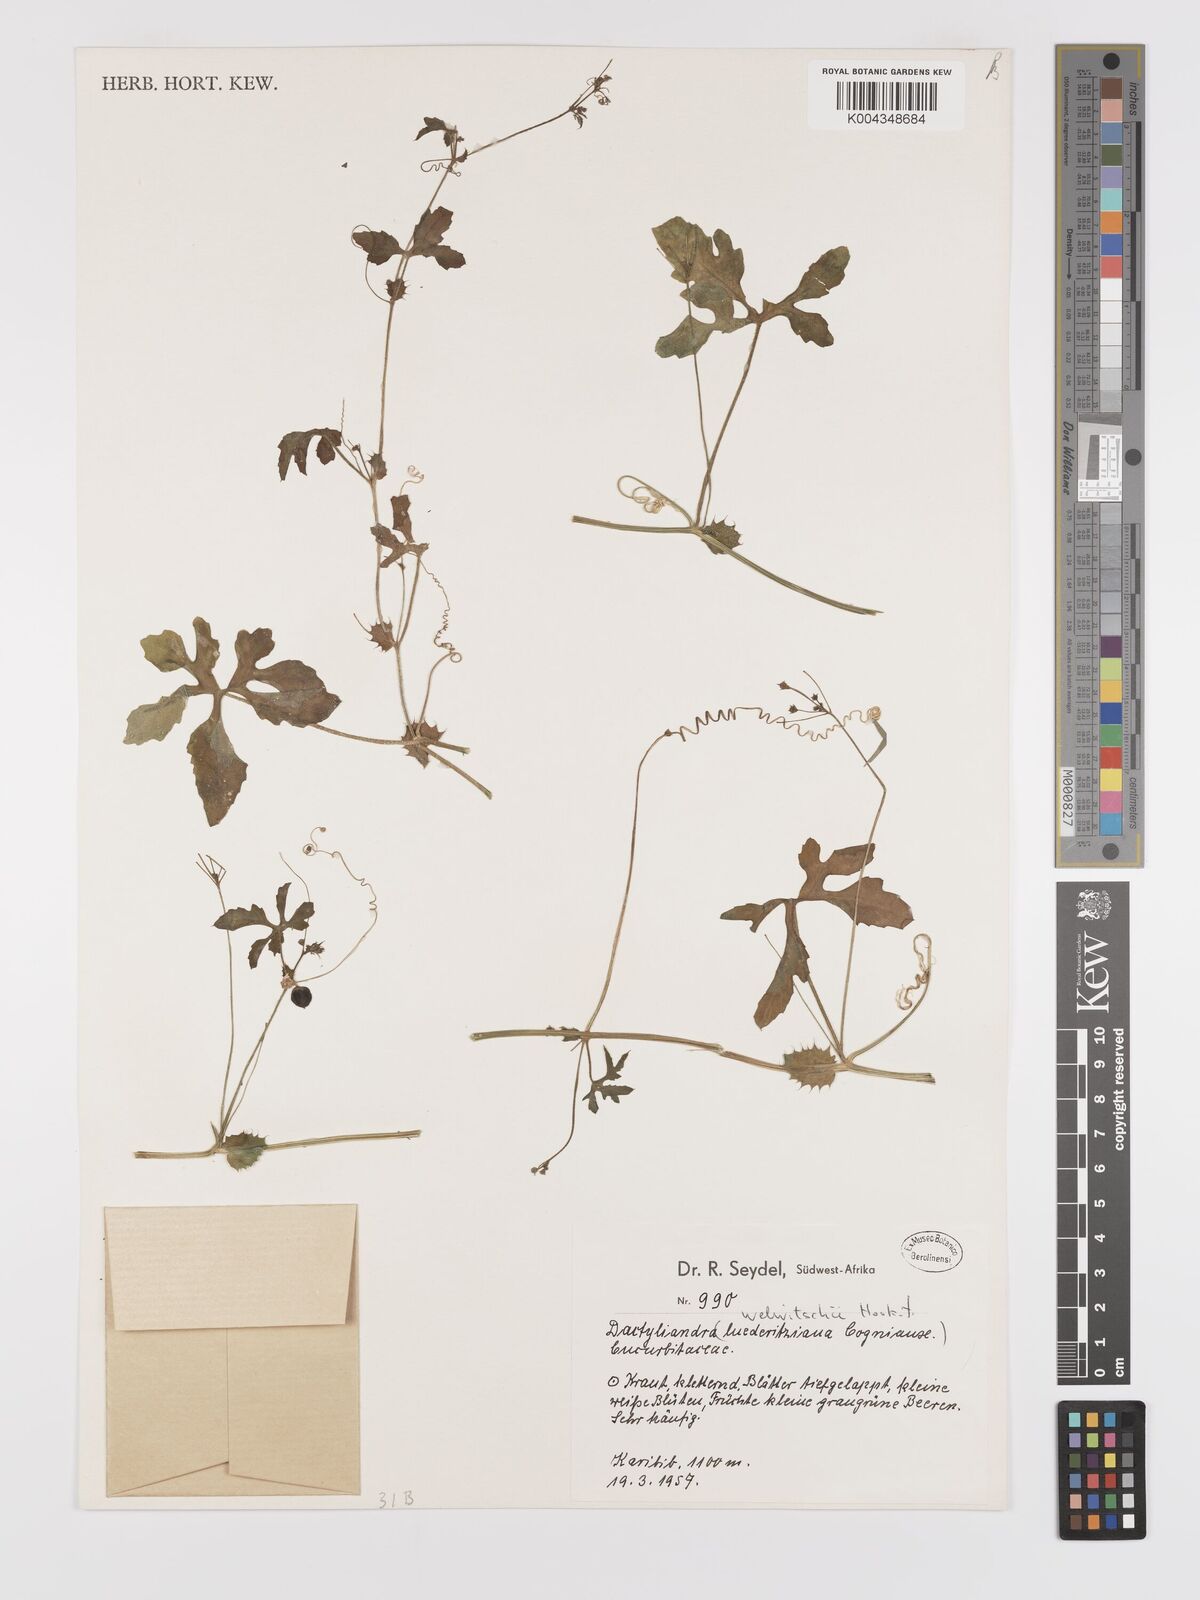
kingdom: Plantae
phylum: Tracheophyta
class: Magnoliopsida
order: Cucurbitales
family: Cucurbitaceae
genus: Dactyliandra
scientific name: Dactyliandra welwitschii
